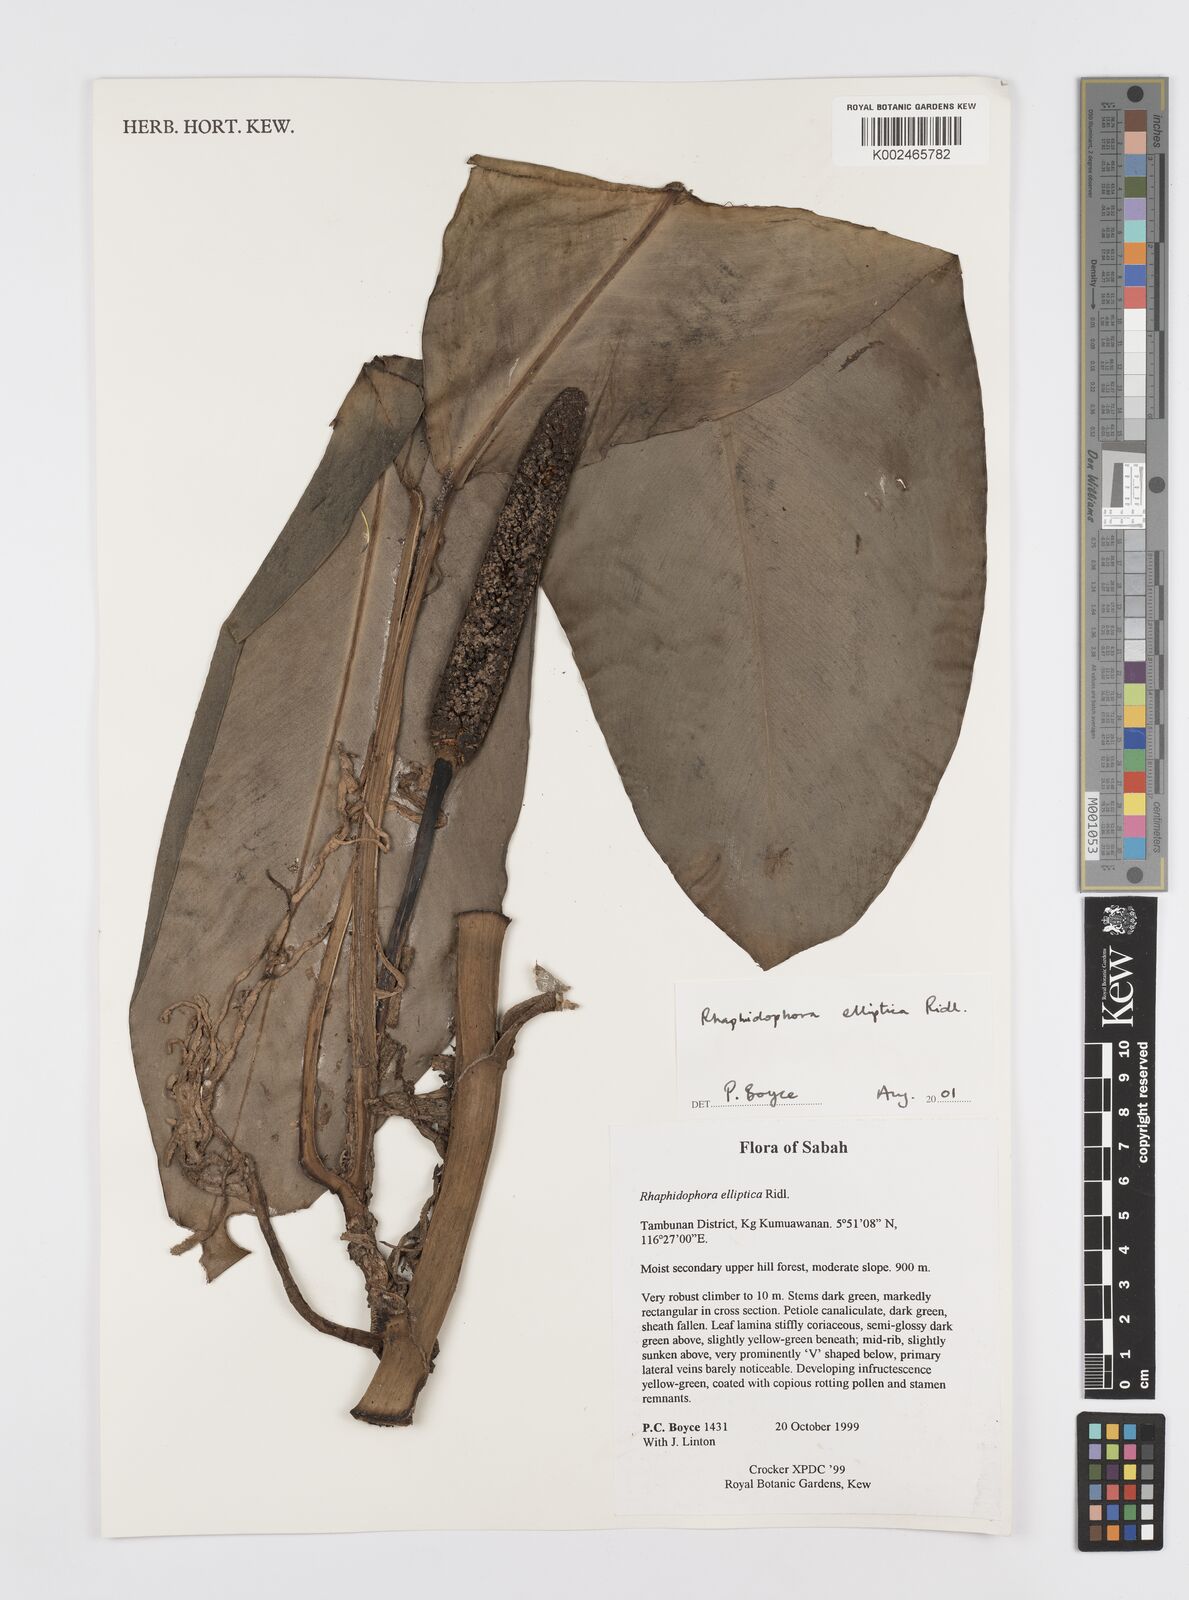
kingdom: Plantae
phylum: Tracheophyta
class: Liliopsida
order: Alismatales
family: Araceae
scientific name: Araceae
